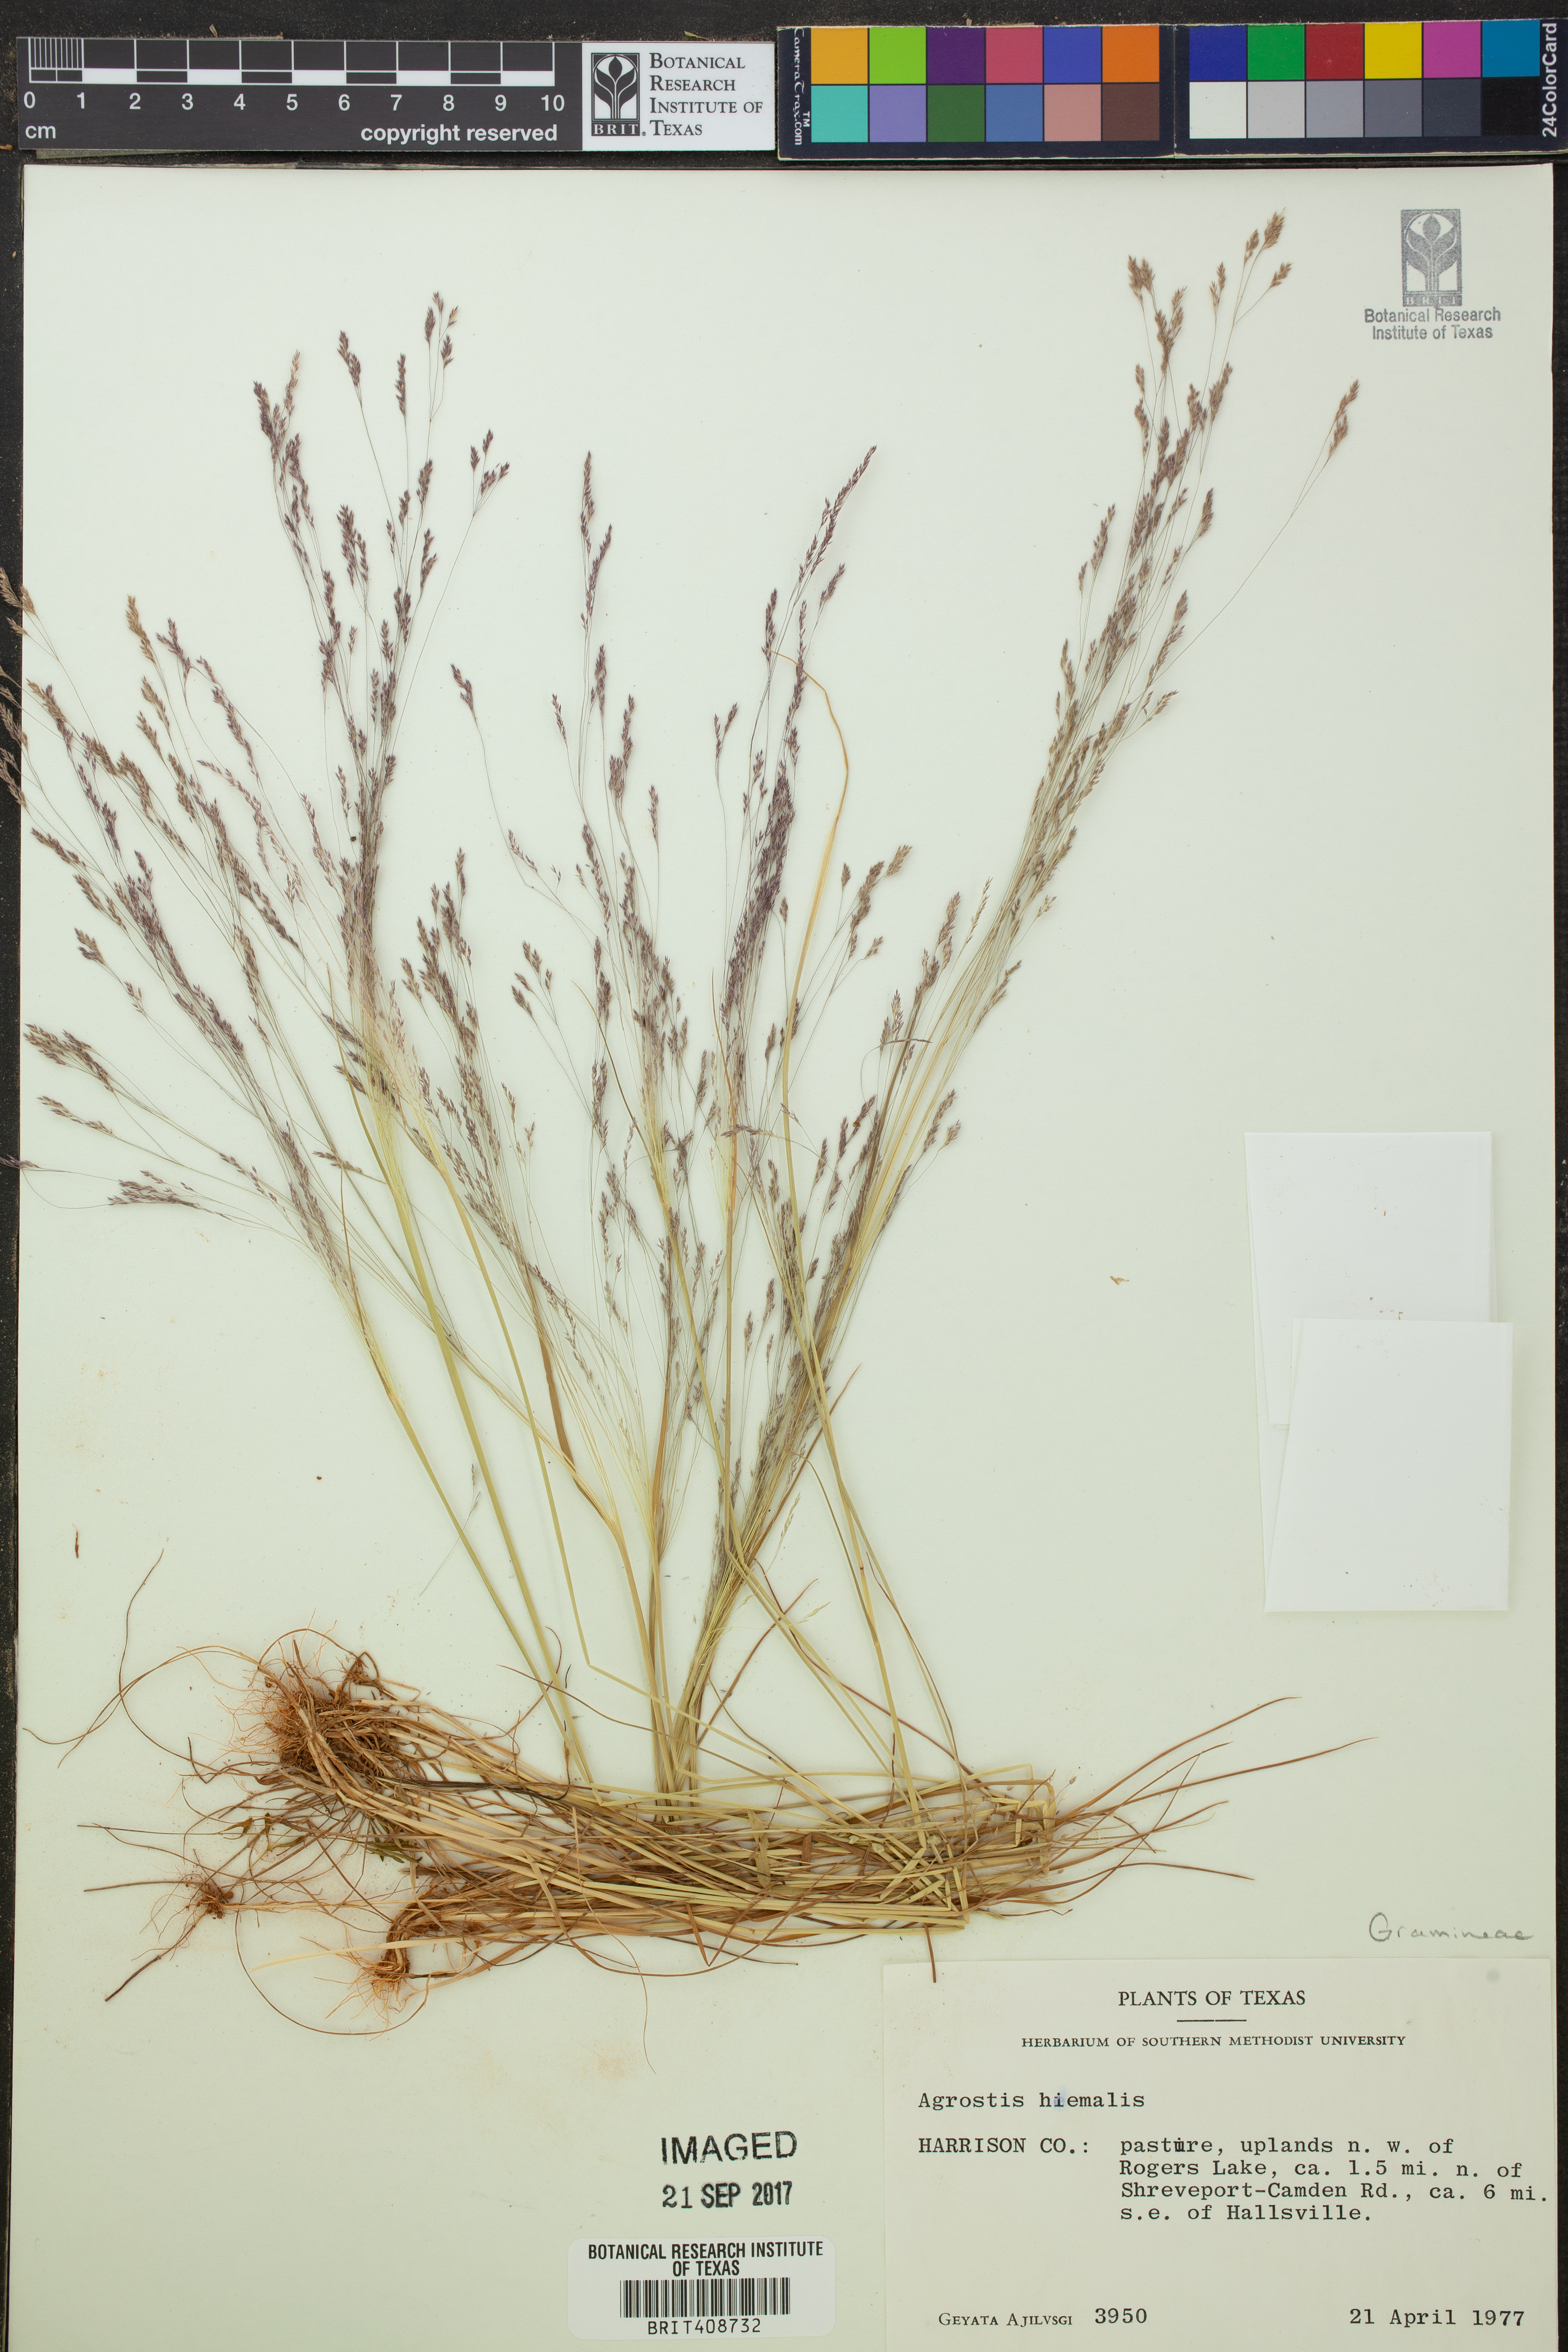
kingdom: Plantae
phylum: Tracheophyta
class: Liliopsida
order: Poales
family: Poaceae
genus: Agrostis
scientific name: Agrostis hyemalis
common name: Small bent
